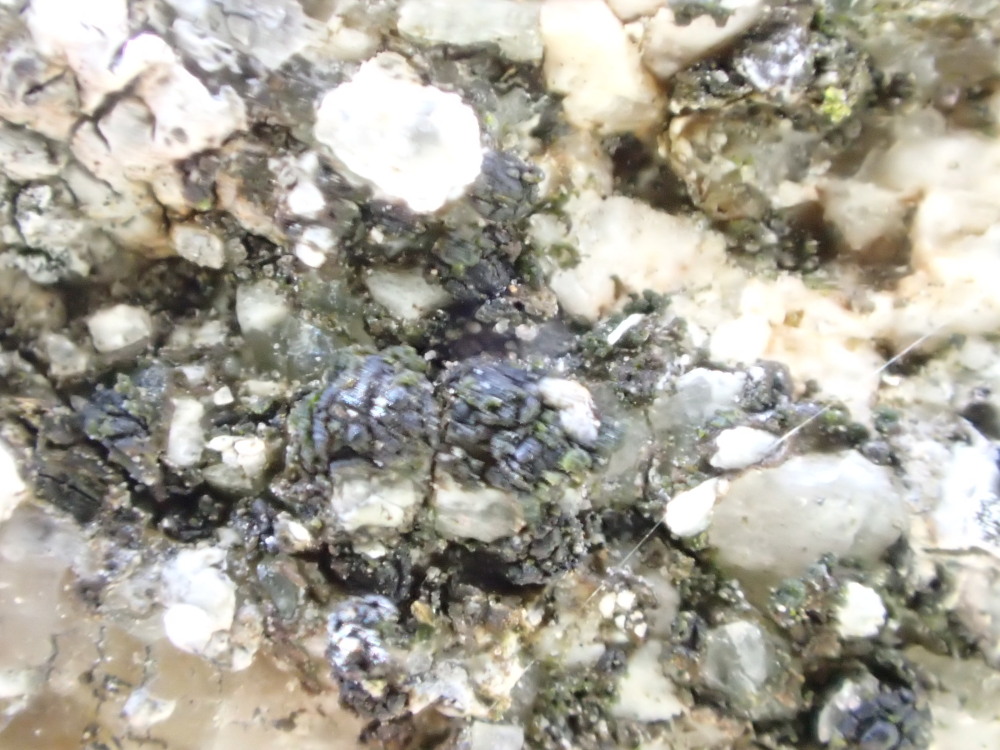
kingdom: Fungi
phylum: Ascomycota
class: Lecanoromycetes
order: Acarosporales
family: Acarosporaceae
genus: Acarospora
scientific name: Acarospora privigna
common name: sort foldekantlav
